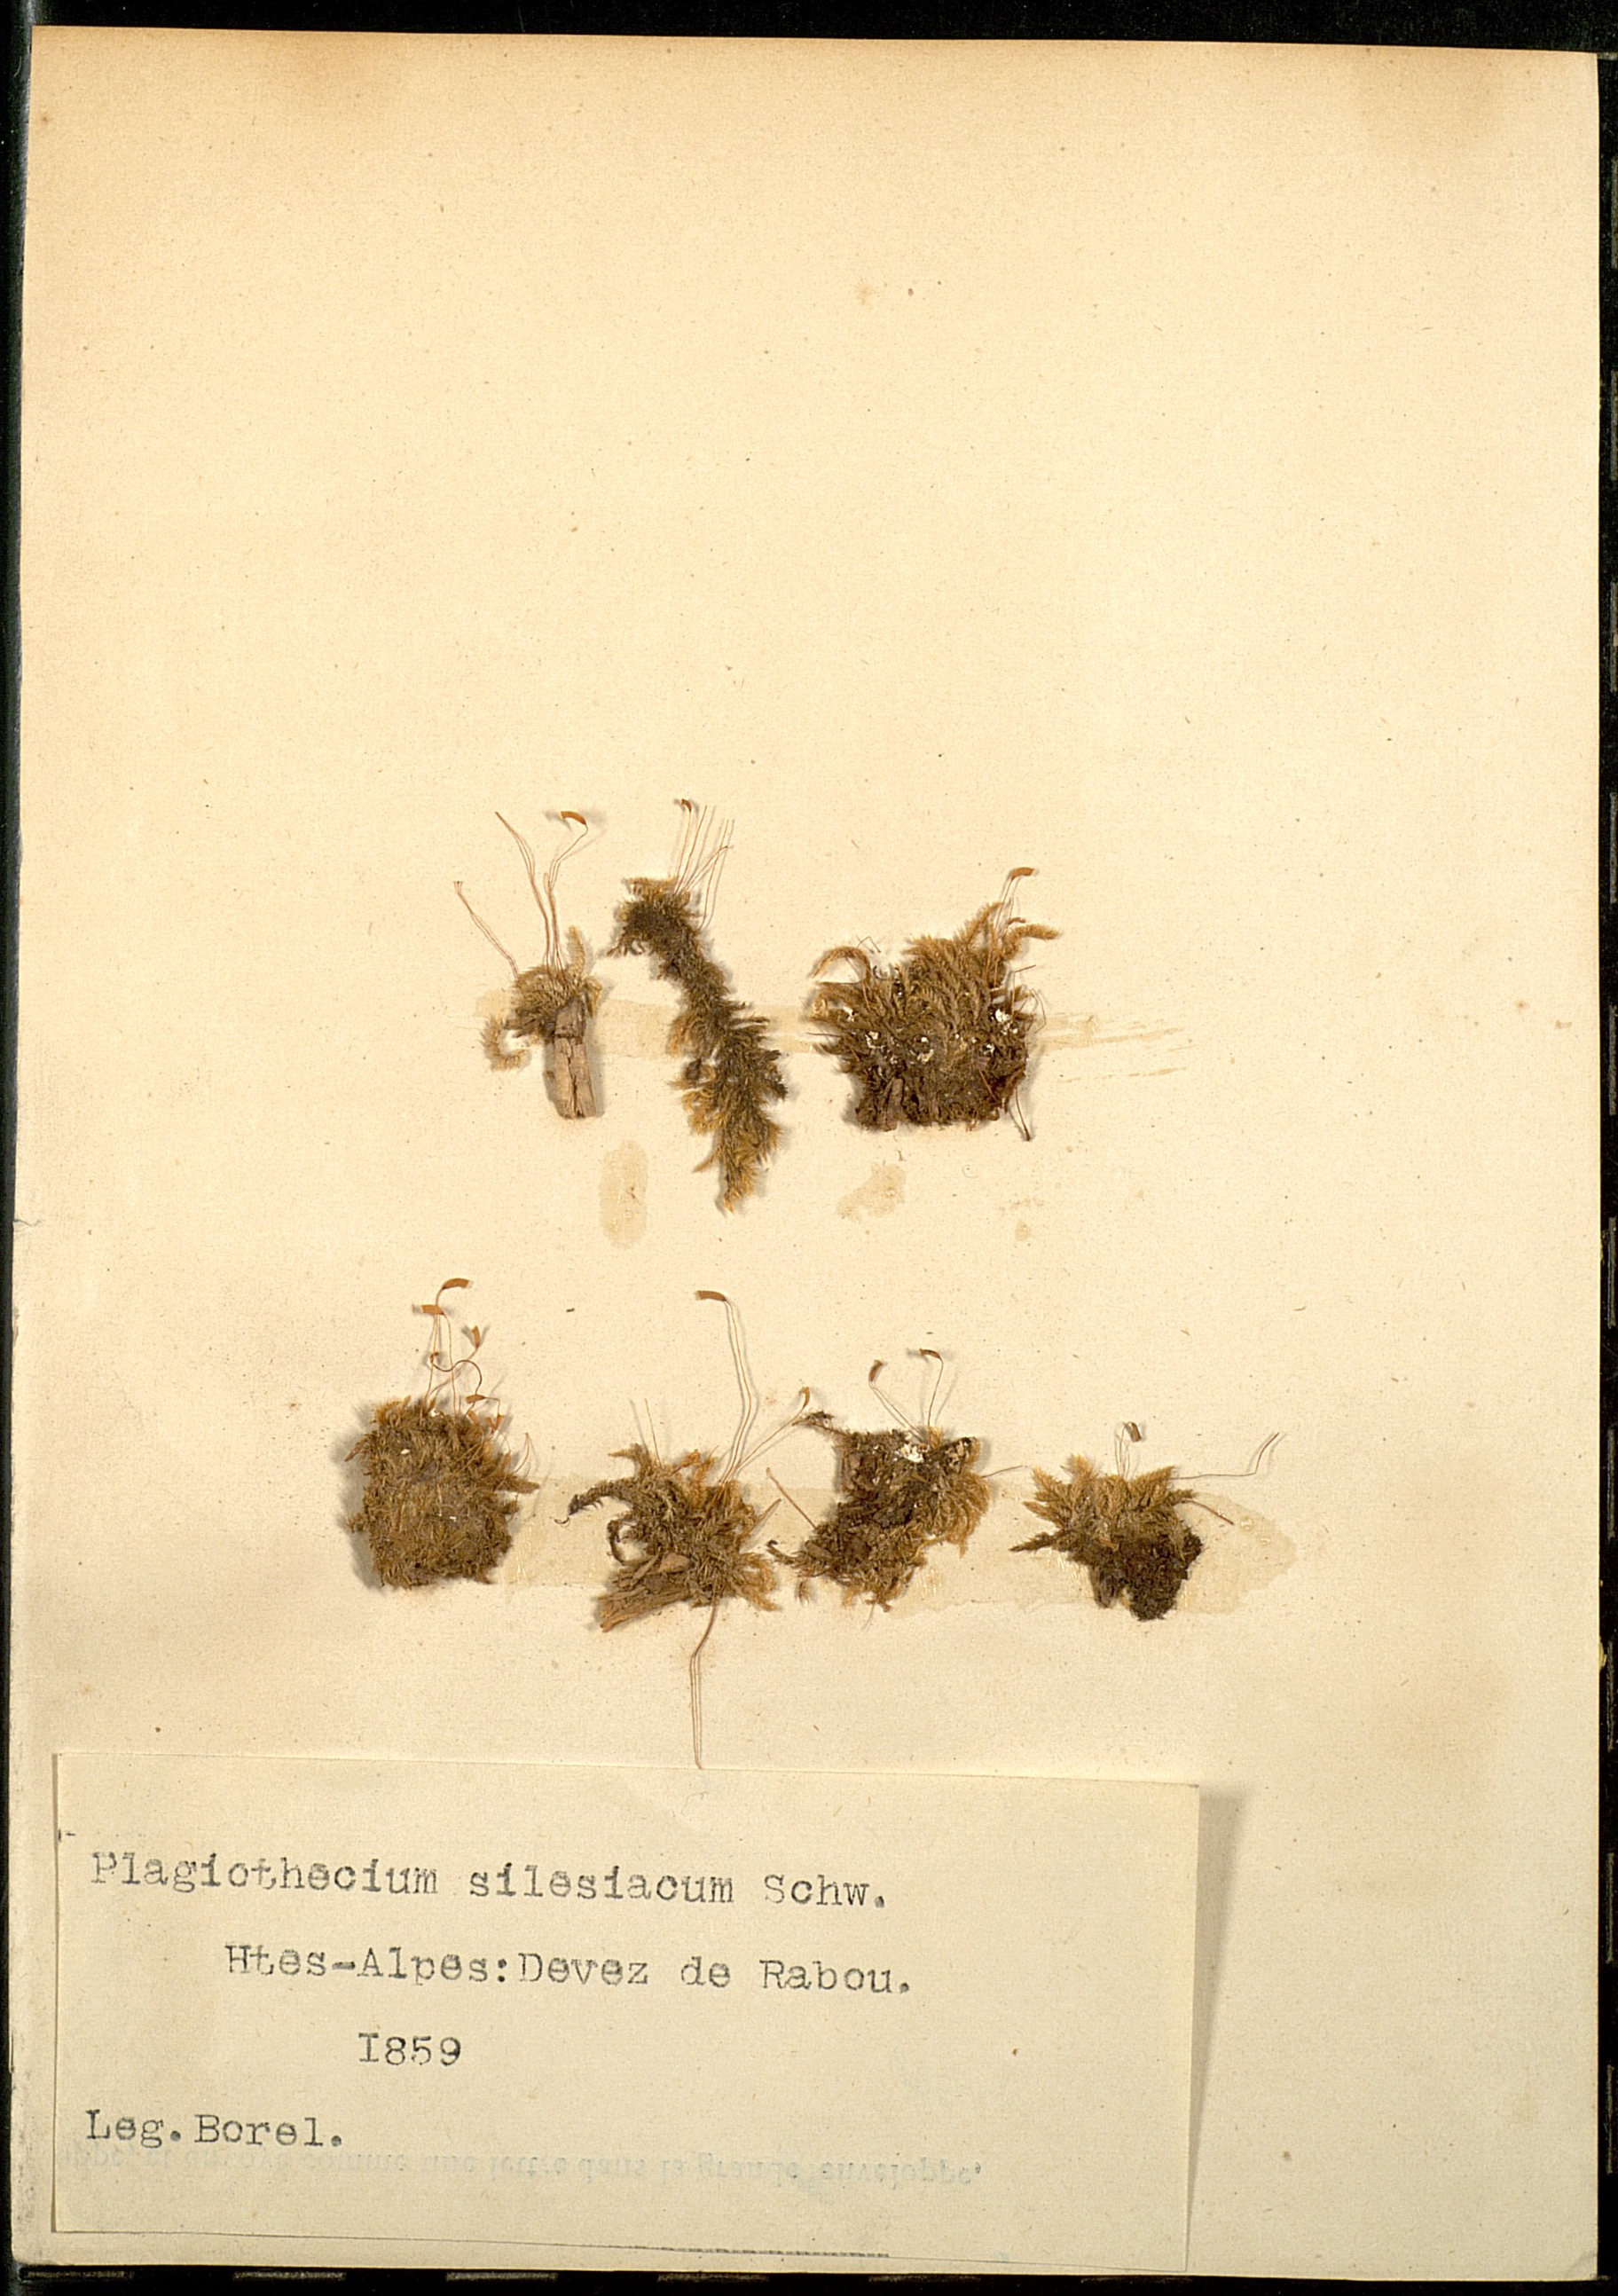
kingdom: Plantae
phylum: Bryophyta
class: Bryopsida
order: Hypnales
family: Plagiotheciaceae
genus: Herzogiella
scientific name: Herzogiella seligeri
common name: Silesian feather-moss
